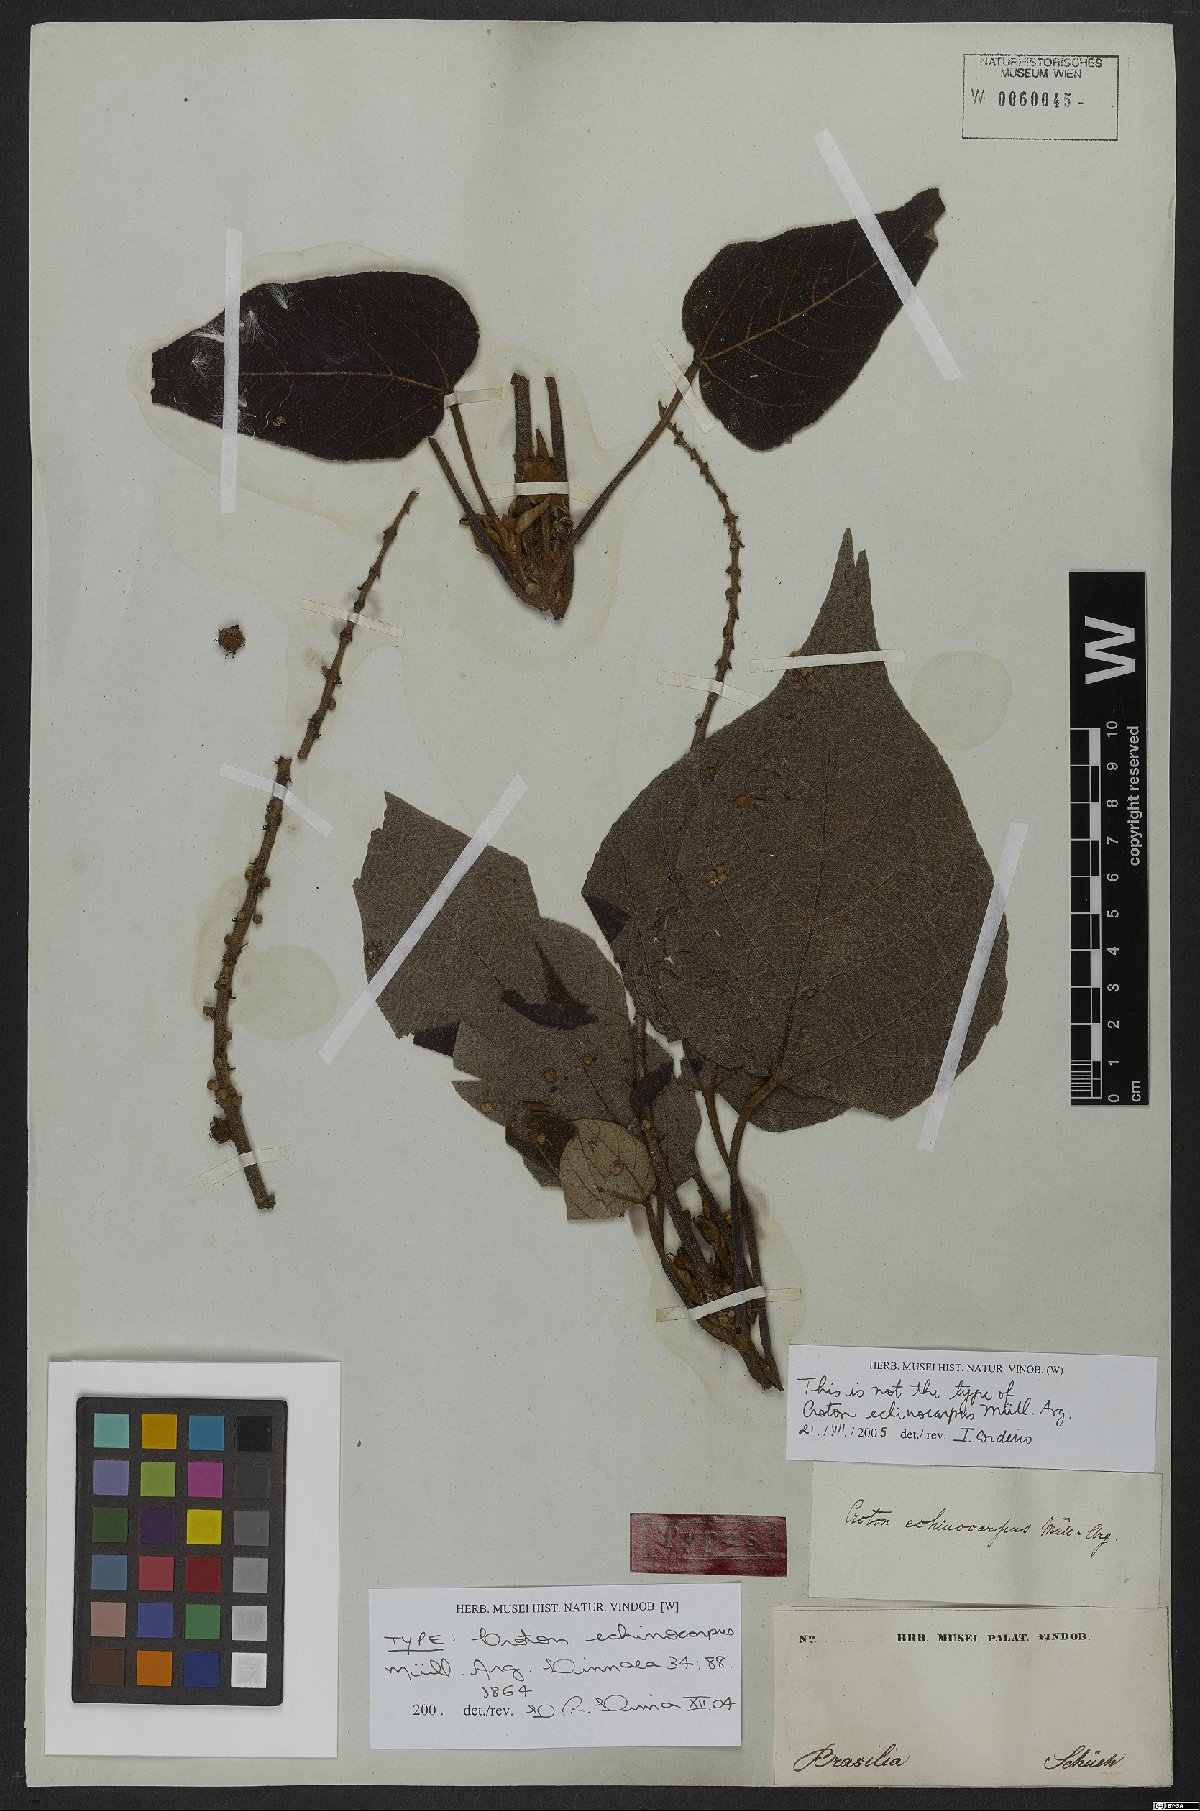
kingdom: Plantae
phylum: Tracheophyta
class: Magnoliopsida
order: Malpighiales
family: Euphorbiaceae
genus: Croton
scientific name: Croton verrucosus
